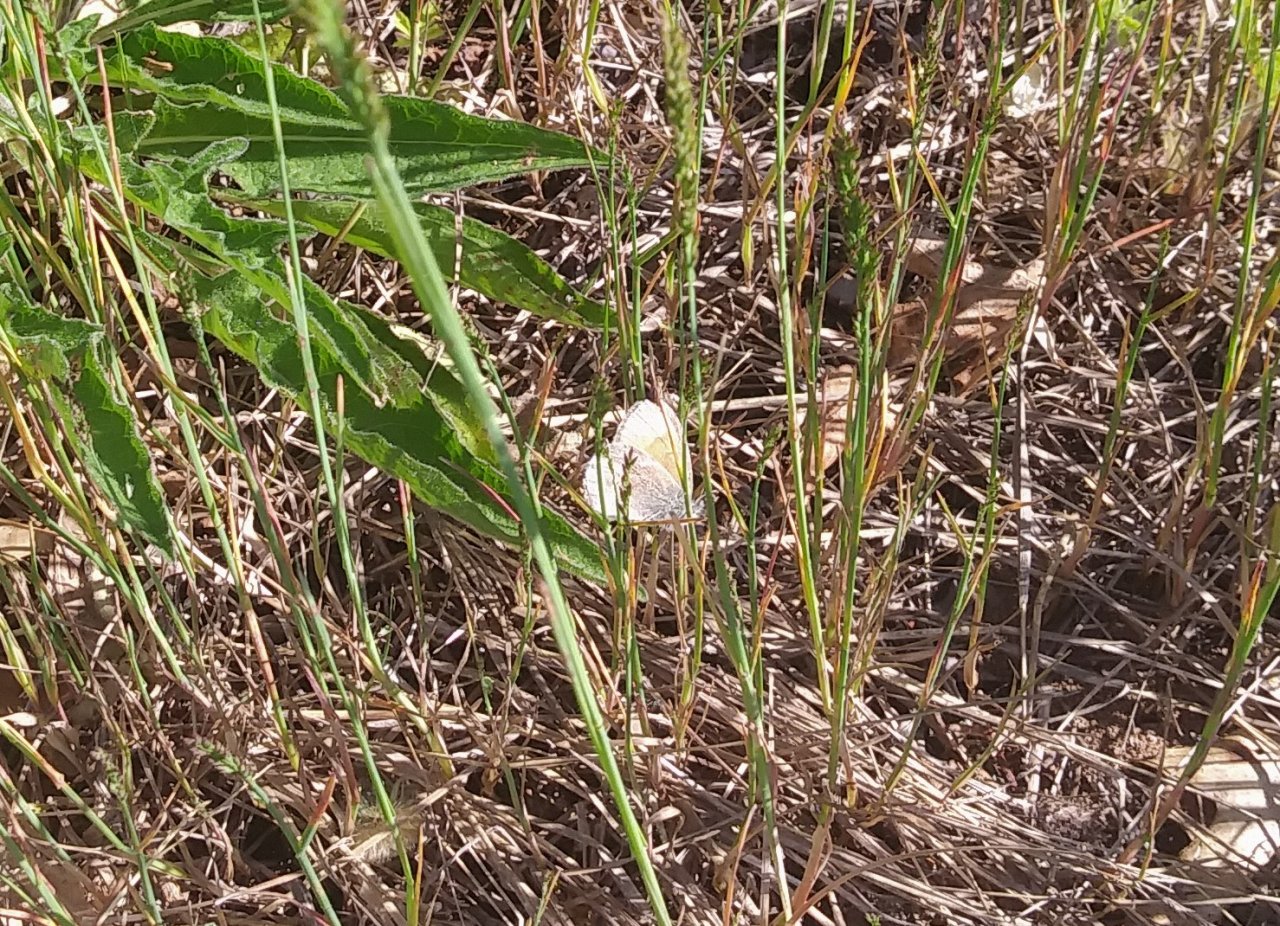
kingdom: Animalia
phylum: Arthropoda
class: Insecta
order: Lepidoptera
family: Nymphalidae
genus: Coenonympha
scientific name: Coenonympha tullia
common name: Large Heath
